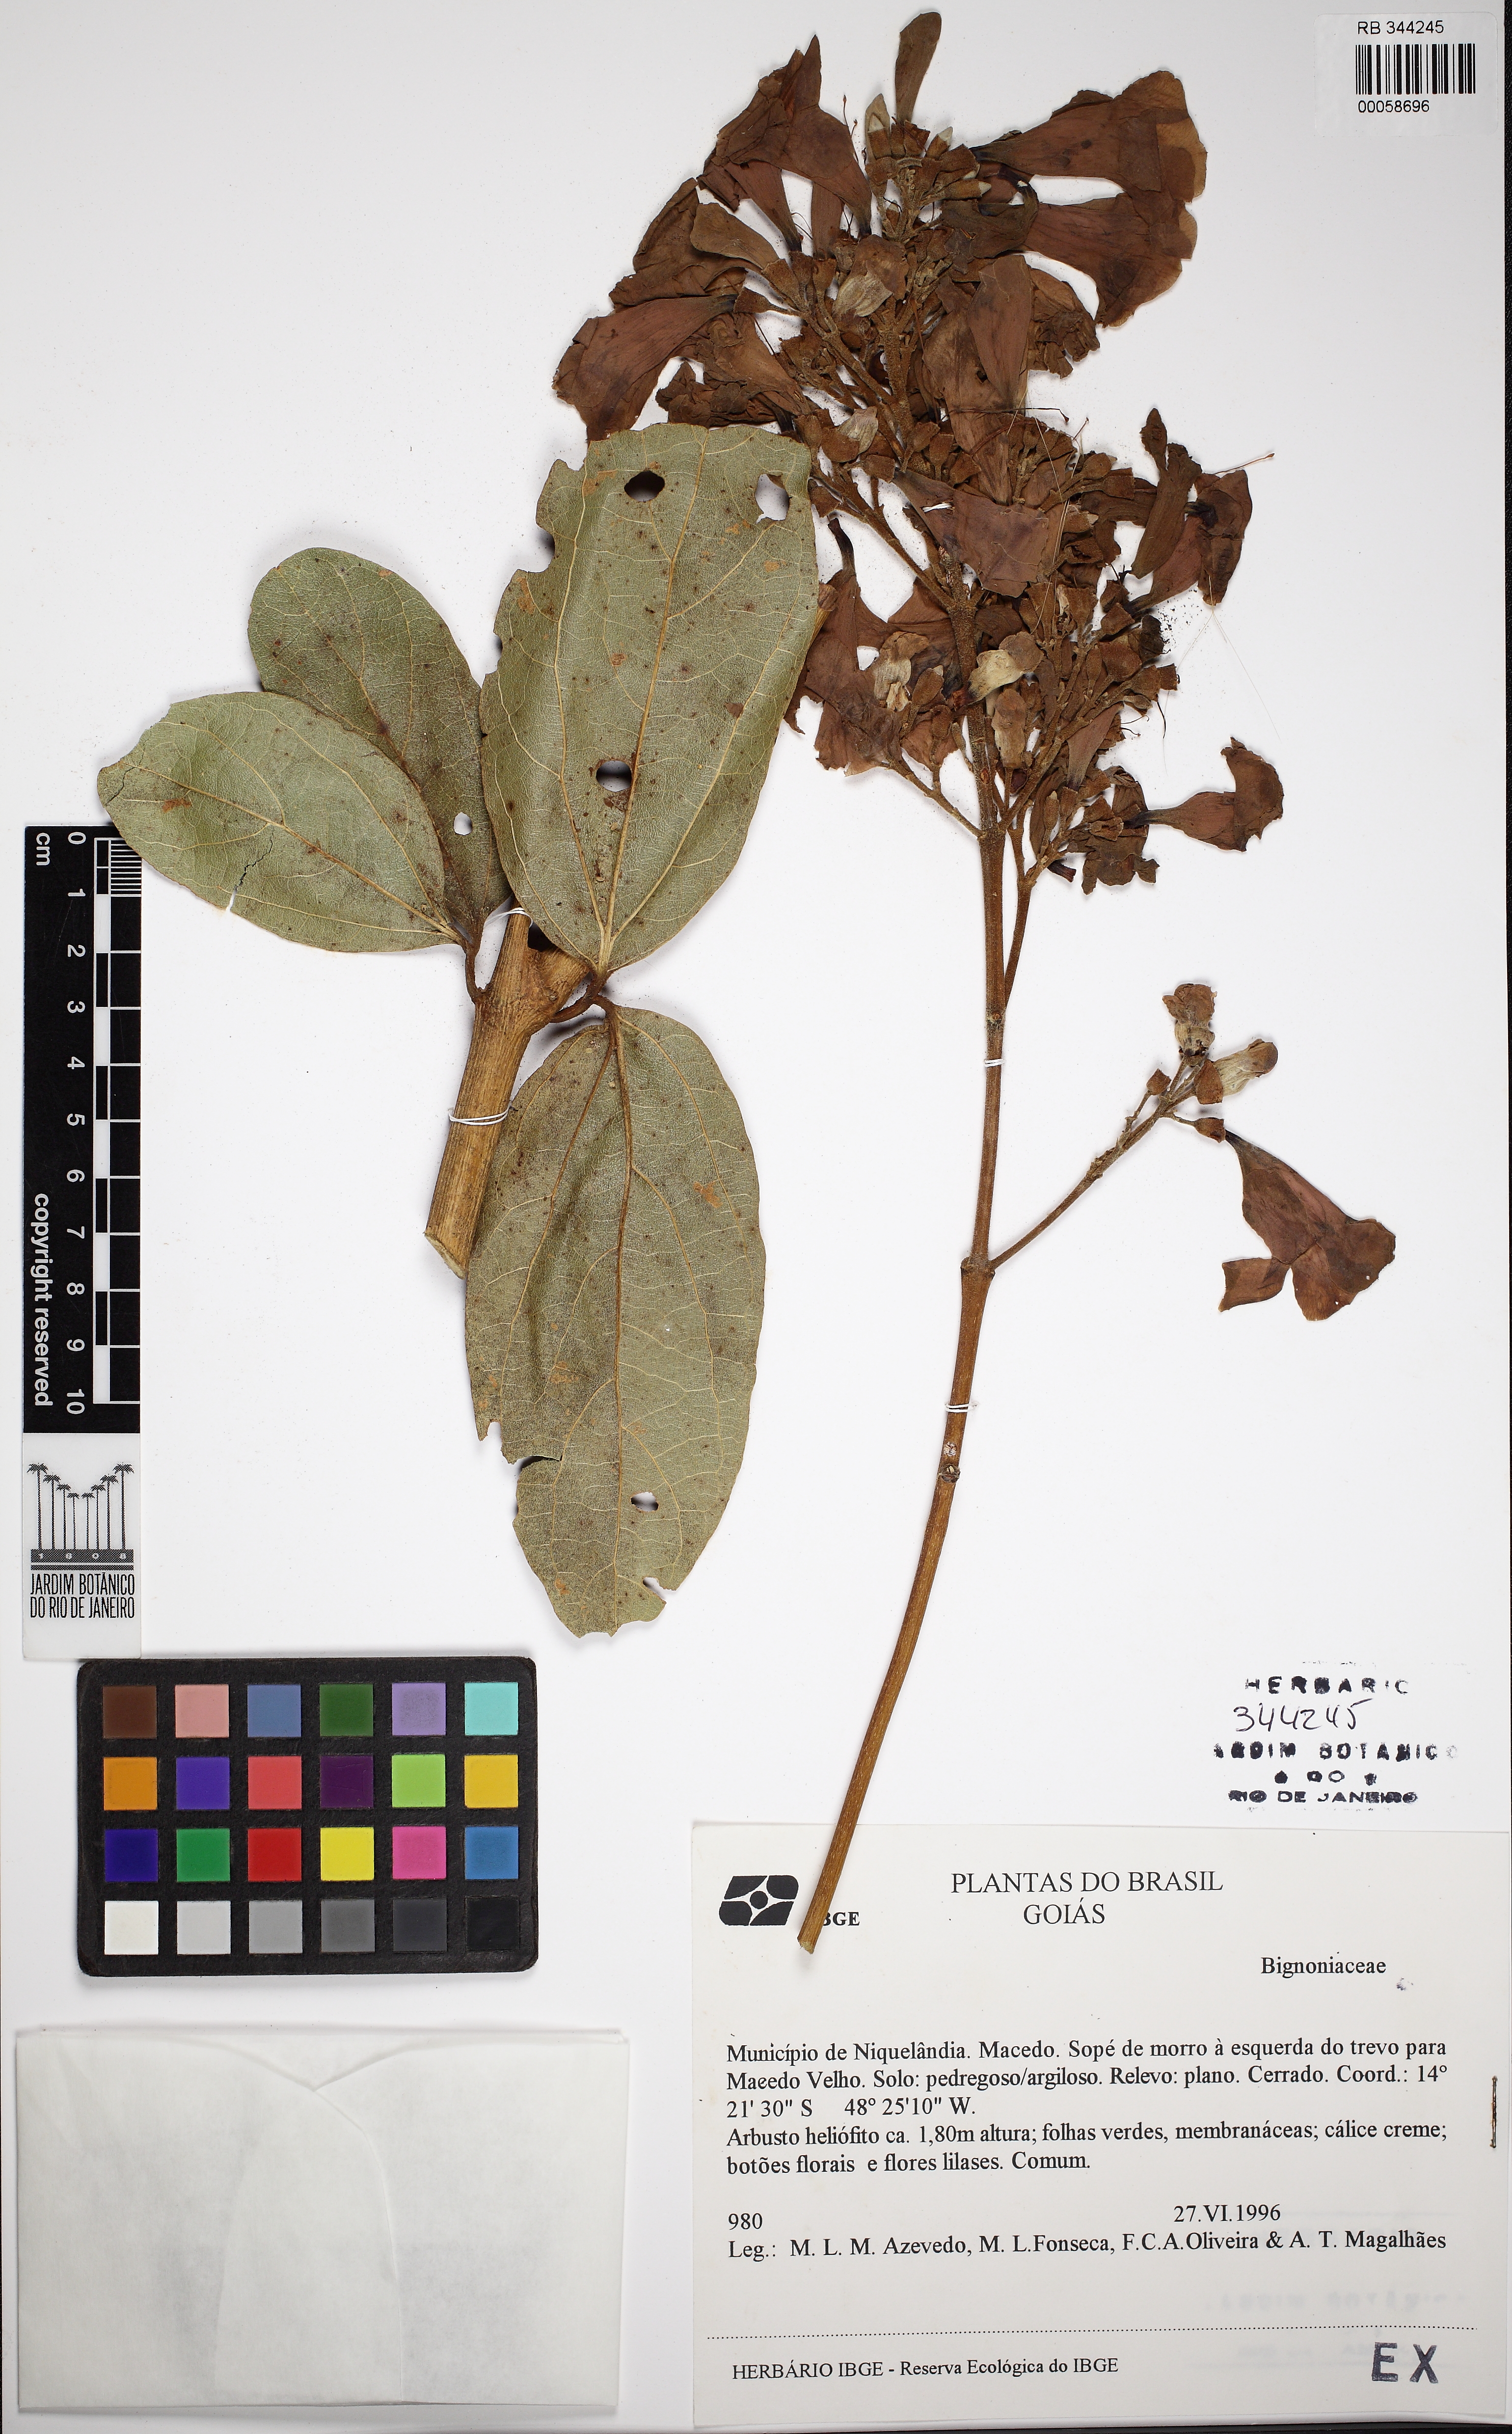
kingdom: Plantae
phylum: Tracheophyta
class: Magnoliopsida
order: Lamiales
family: Bignoniaceae
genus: Fridericia
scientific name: Fridericia platyphylla
